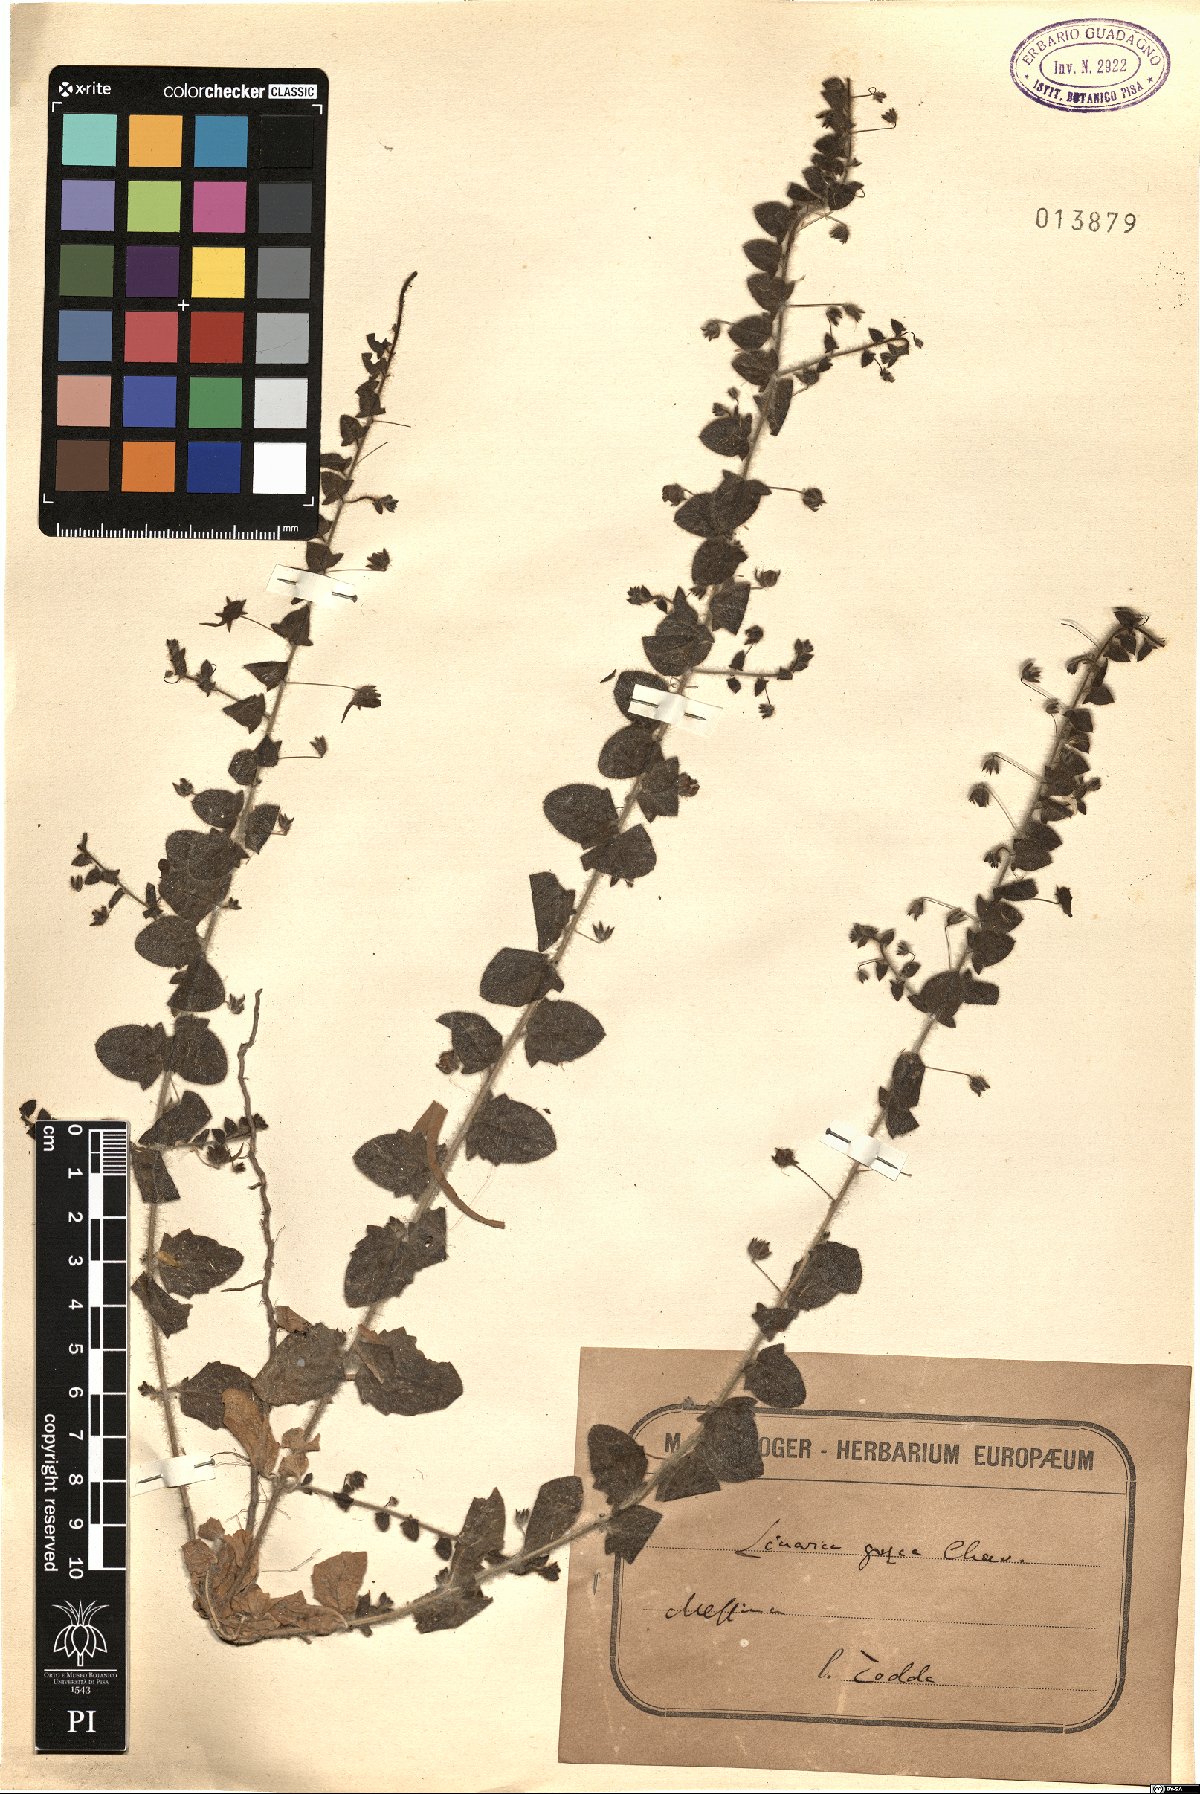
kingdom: Plantae
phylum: Tracheophyta
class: Magnoliopsida
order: Lamiales
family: Plantaginaceae
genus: Kickxia
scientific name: Kickxia commutata
